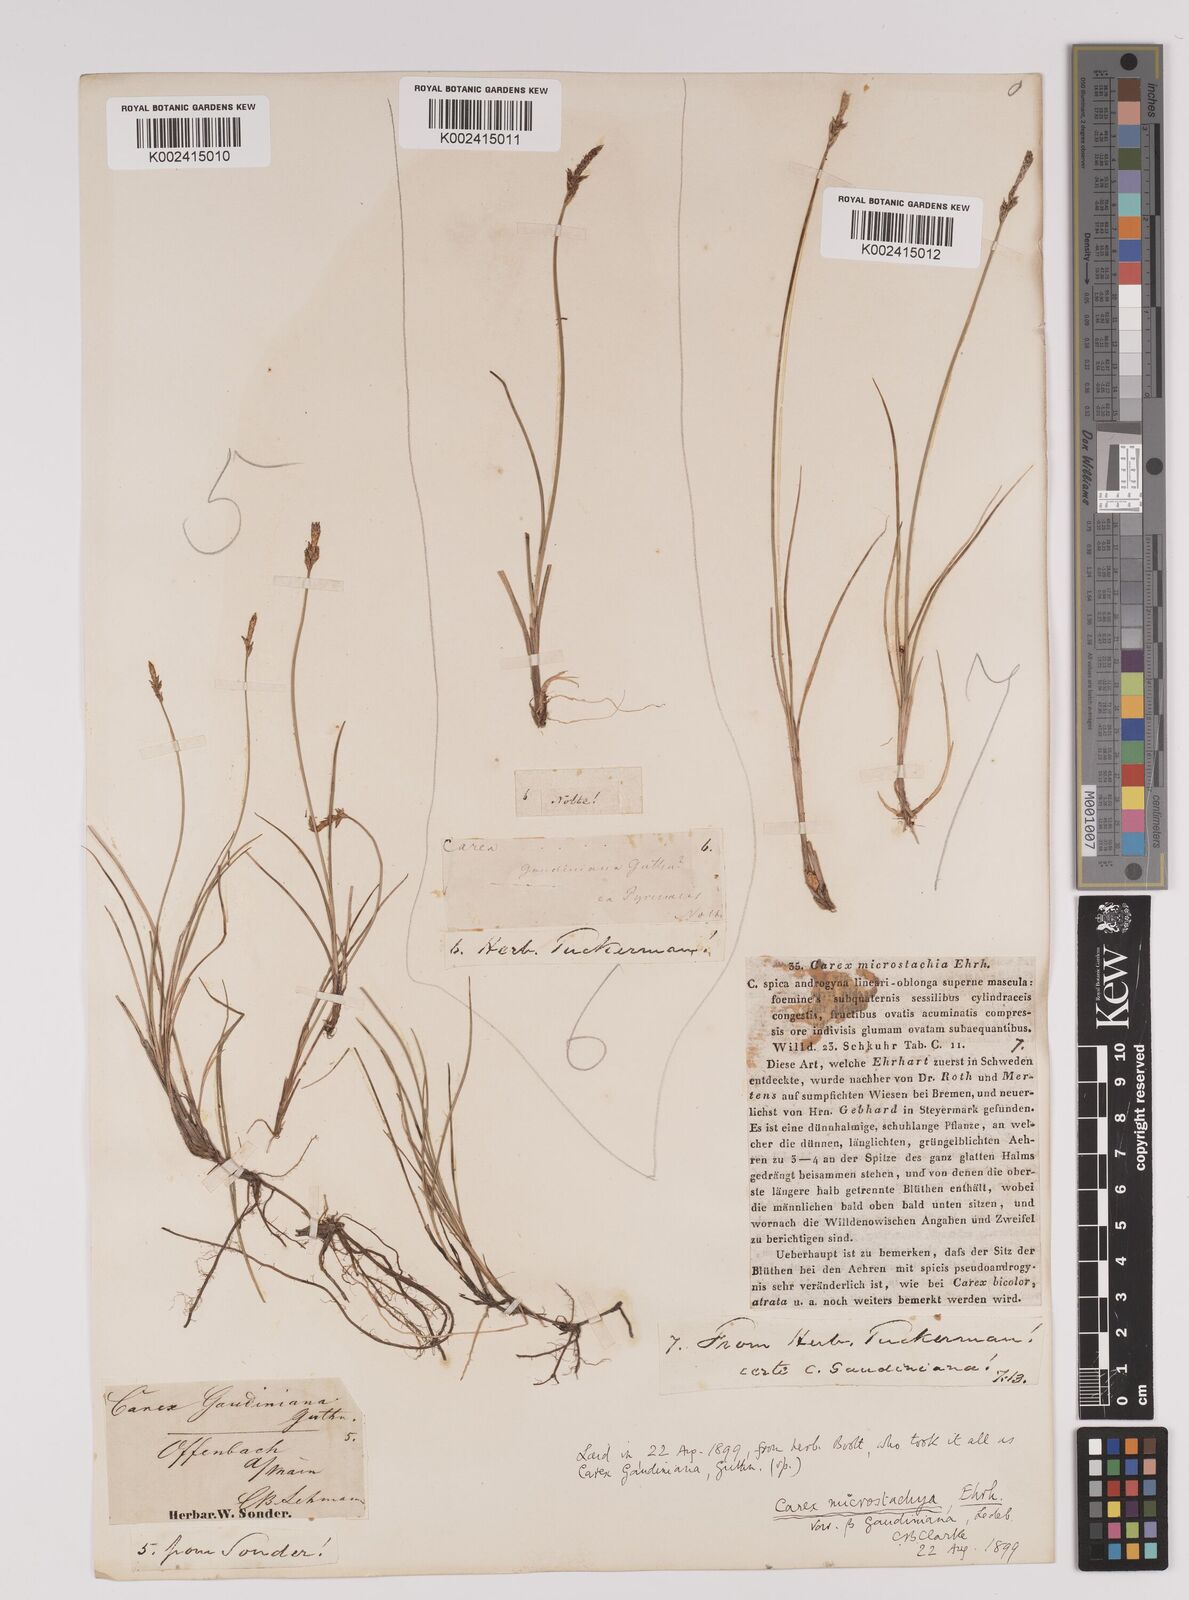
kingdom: Plantae
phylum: Tracheophyta
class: Liliopsida
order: Poales
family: Cyperaceae
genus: Carex
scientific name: Carex dioica
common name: Dioecious sedge
